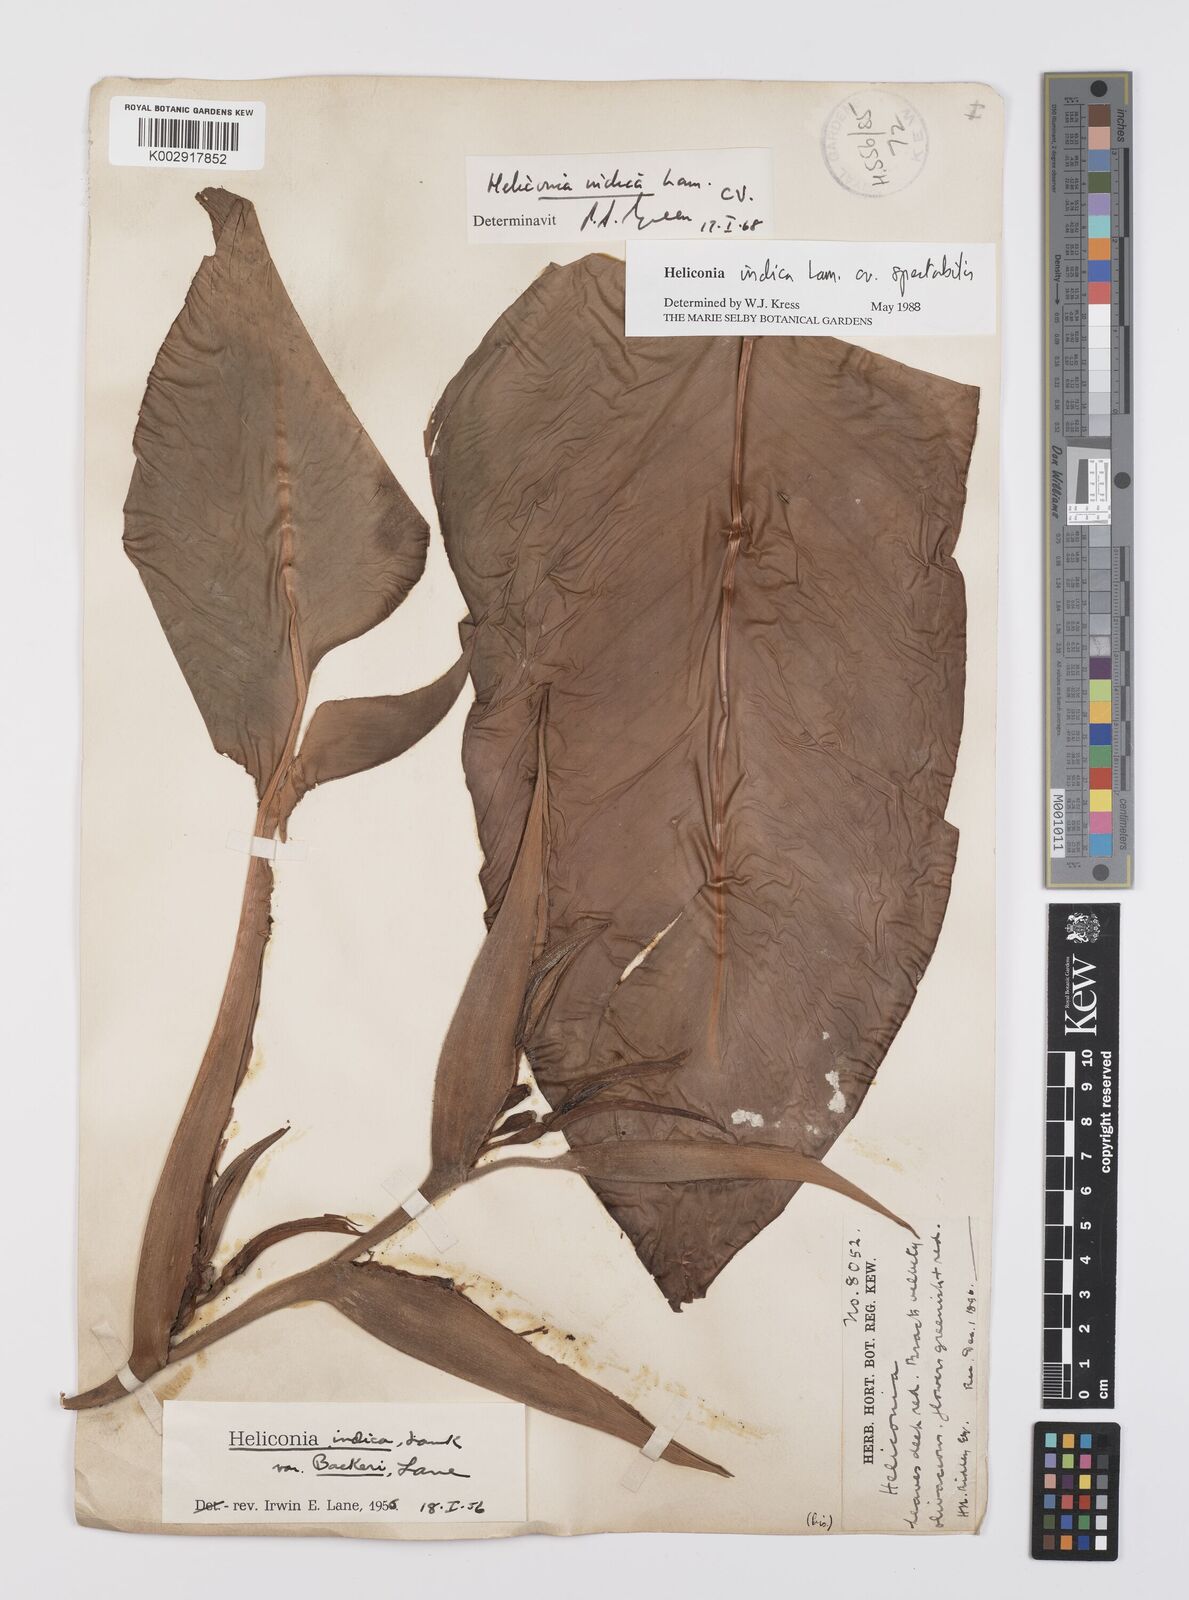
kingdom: Plantae
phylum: Tracheophyta
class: Liliopsida
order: Zingiberales
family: Heliconiaceae
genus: Heliconia
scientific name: Heliconia indica
